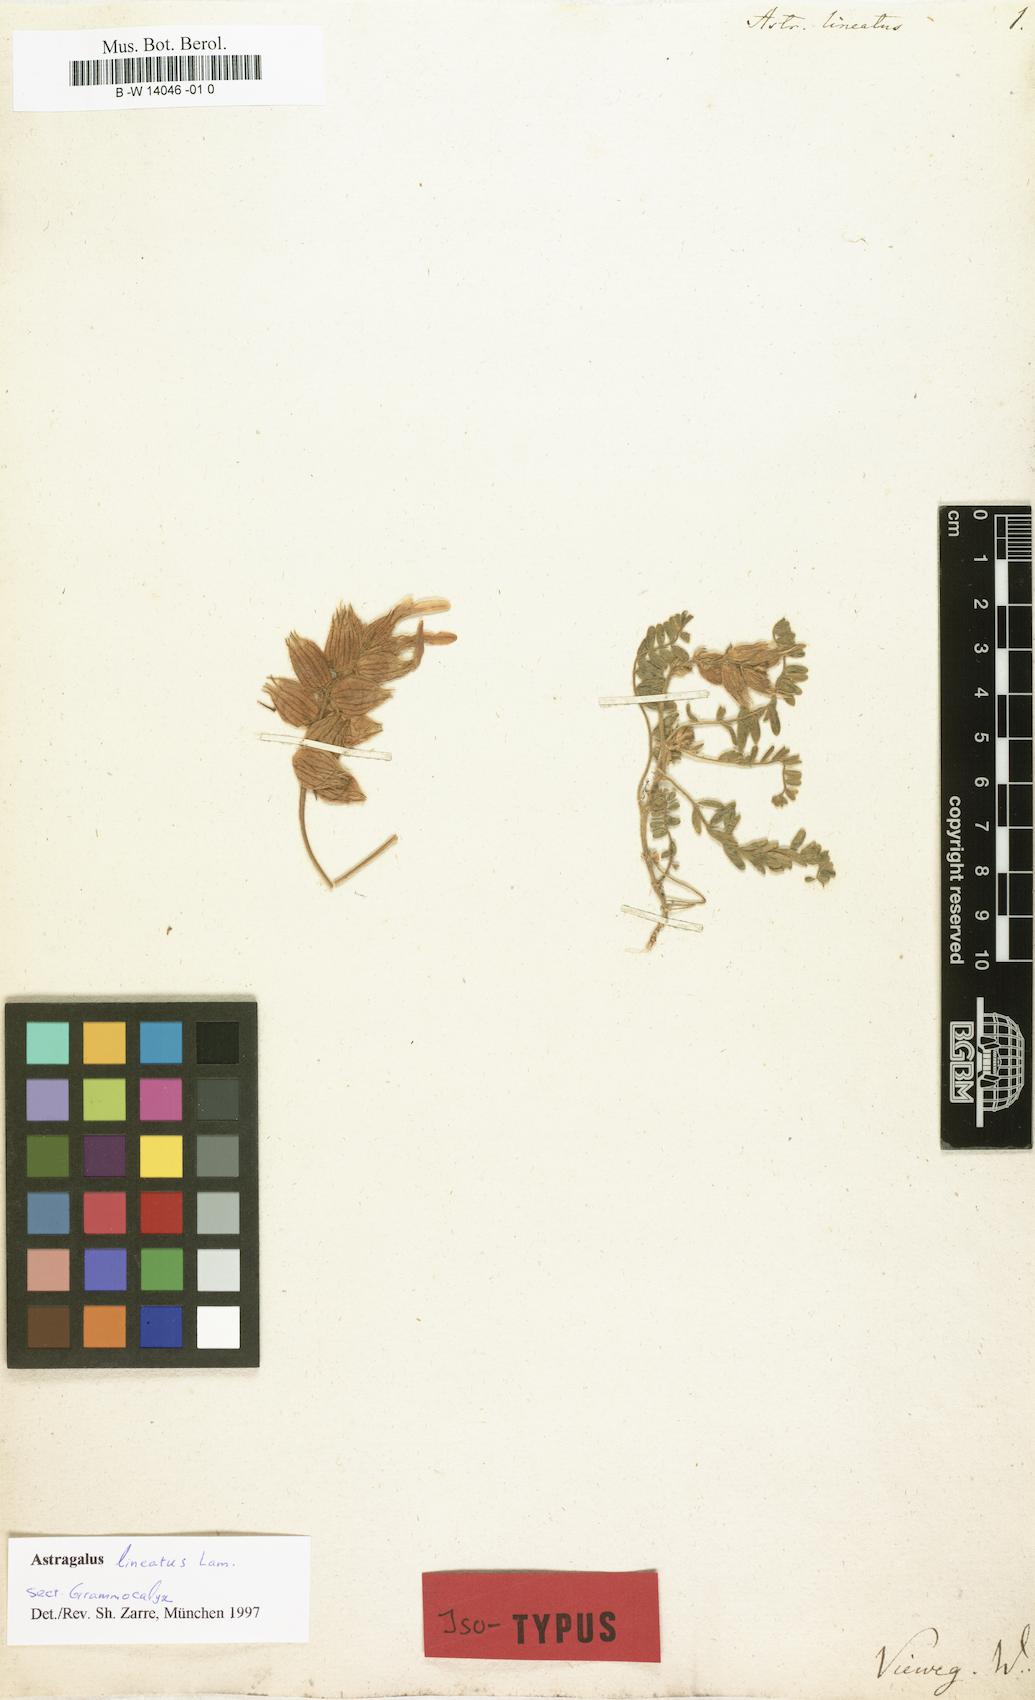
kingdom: Plantae
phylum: Tracheophyta
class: Magnoliopsida
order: Fabales
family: Fabaceae
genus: Astragalus
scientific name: Astragalus lineatus
